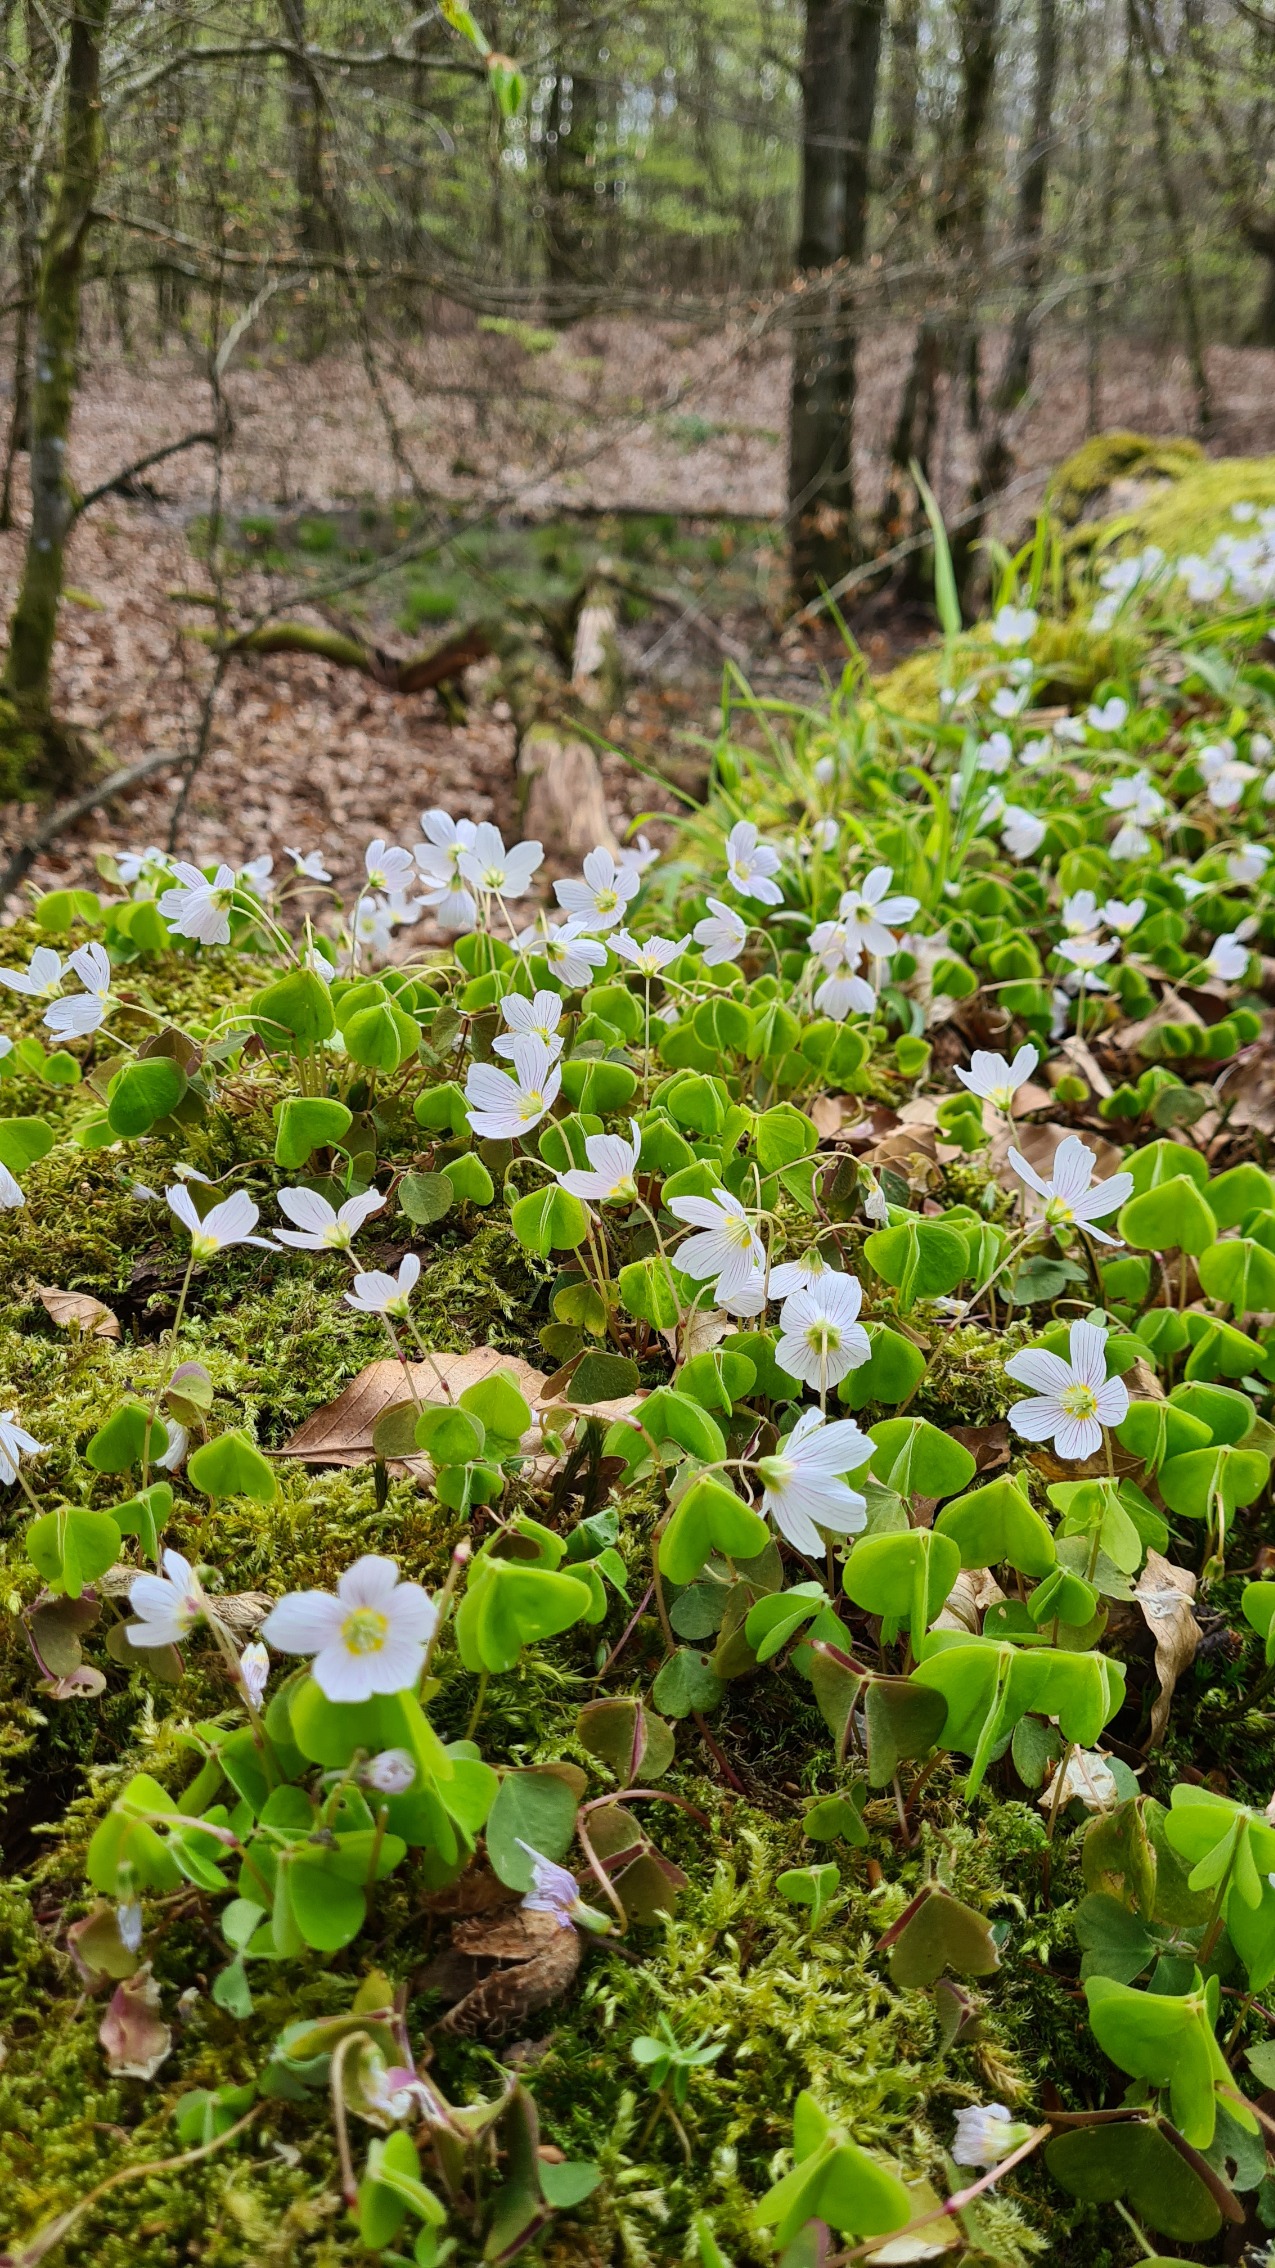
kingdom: Plantae
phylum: Tracheophyta
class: Magnoliopsida
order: Oxalidales
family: Oxalidaceae
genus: Oxalis
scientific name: Oxalis acetosella
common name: Skovsyre
